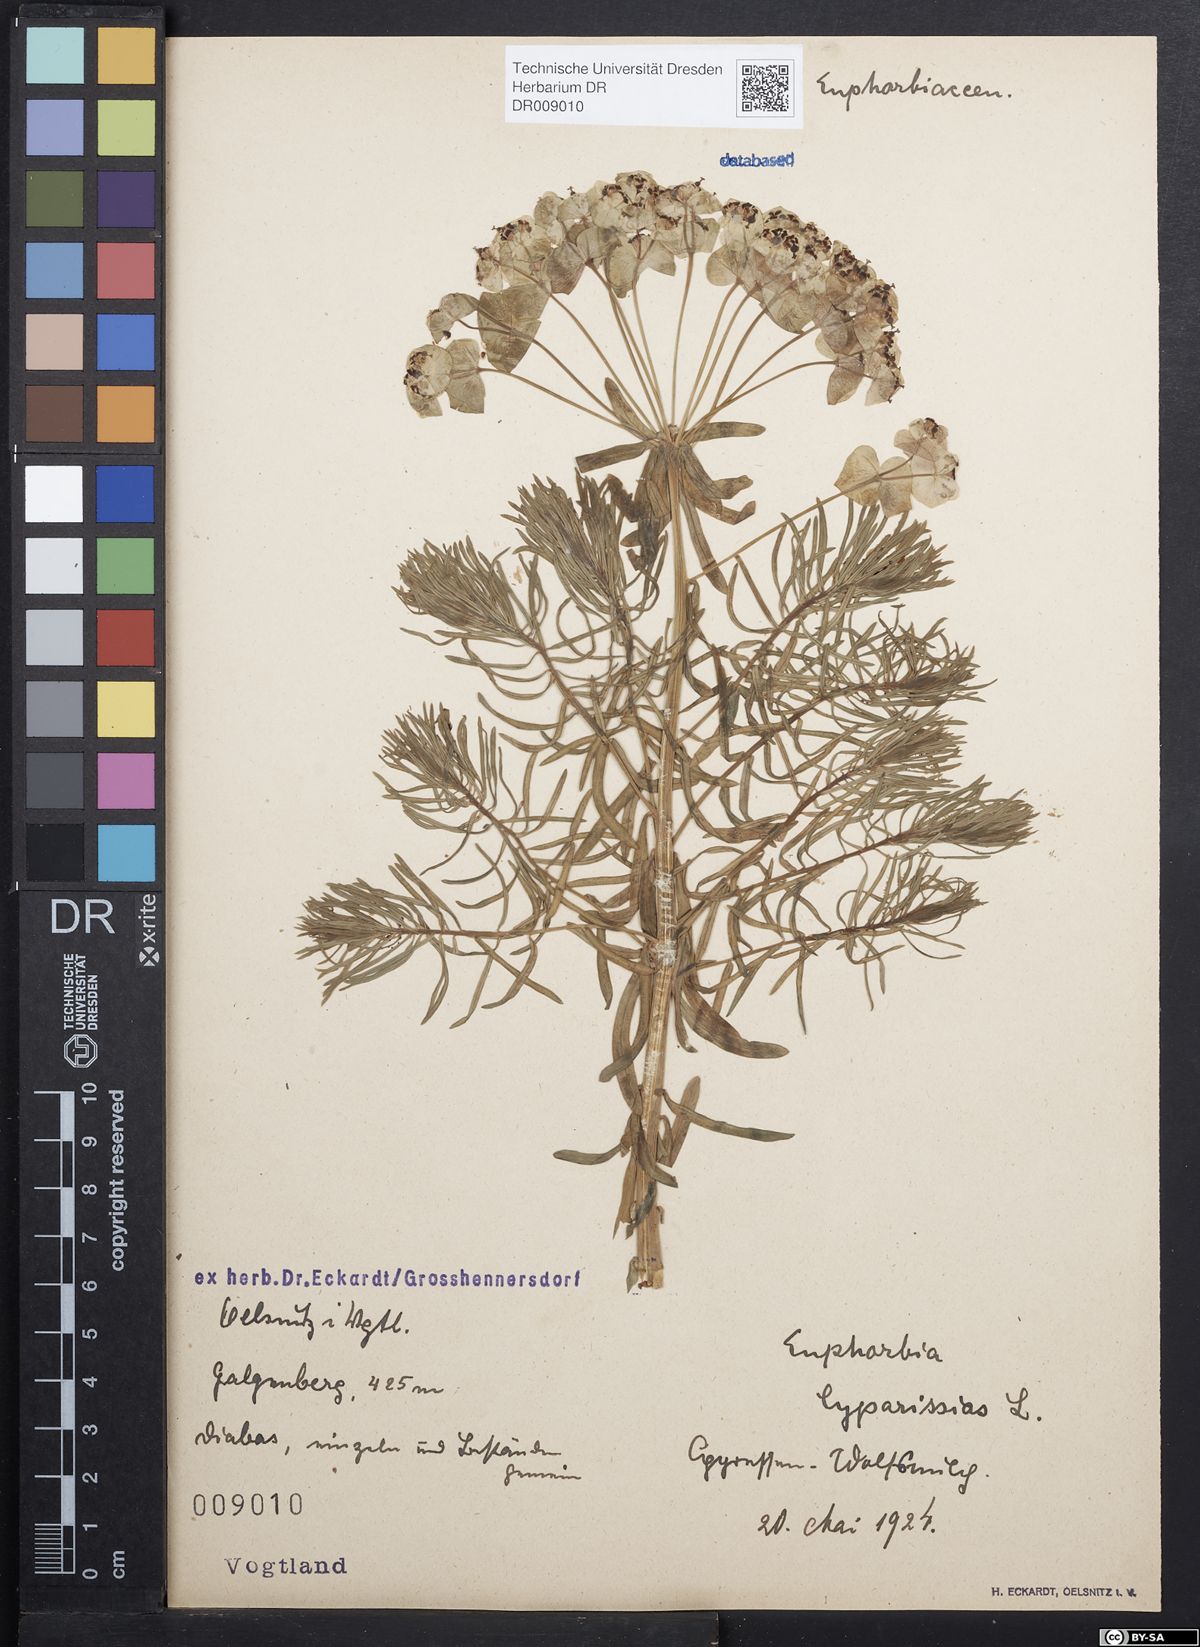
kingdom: Plantae
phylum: Tracheophyta
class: Magnoliopsida
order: Malpighiales
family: Euphorbiaceae
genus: Euphorbia
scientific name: Euphorbia cyparissias
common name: Cypress spurge
